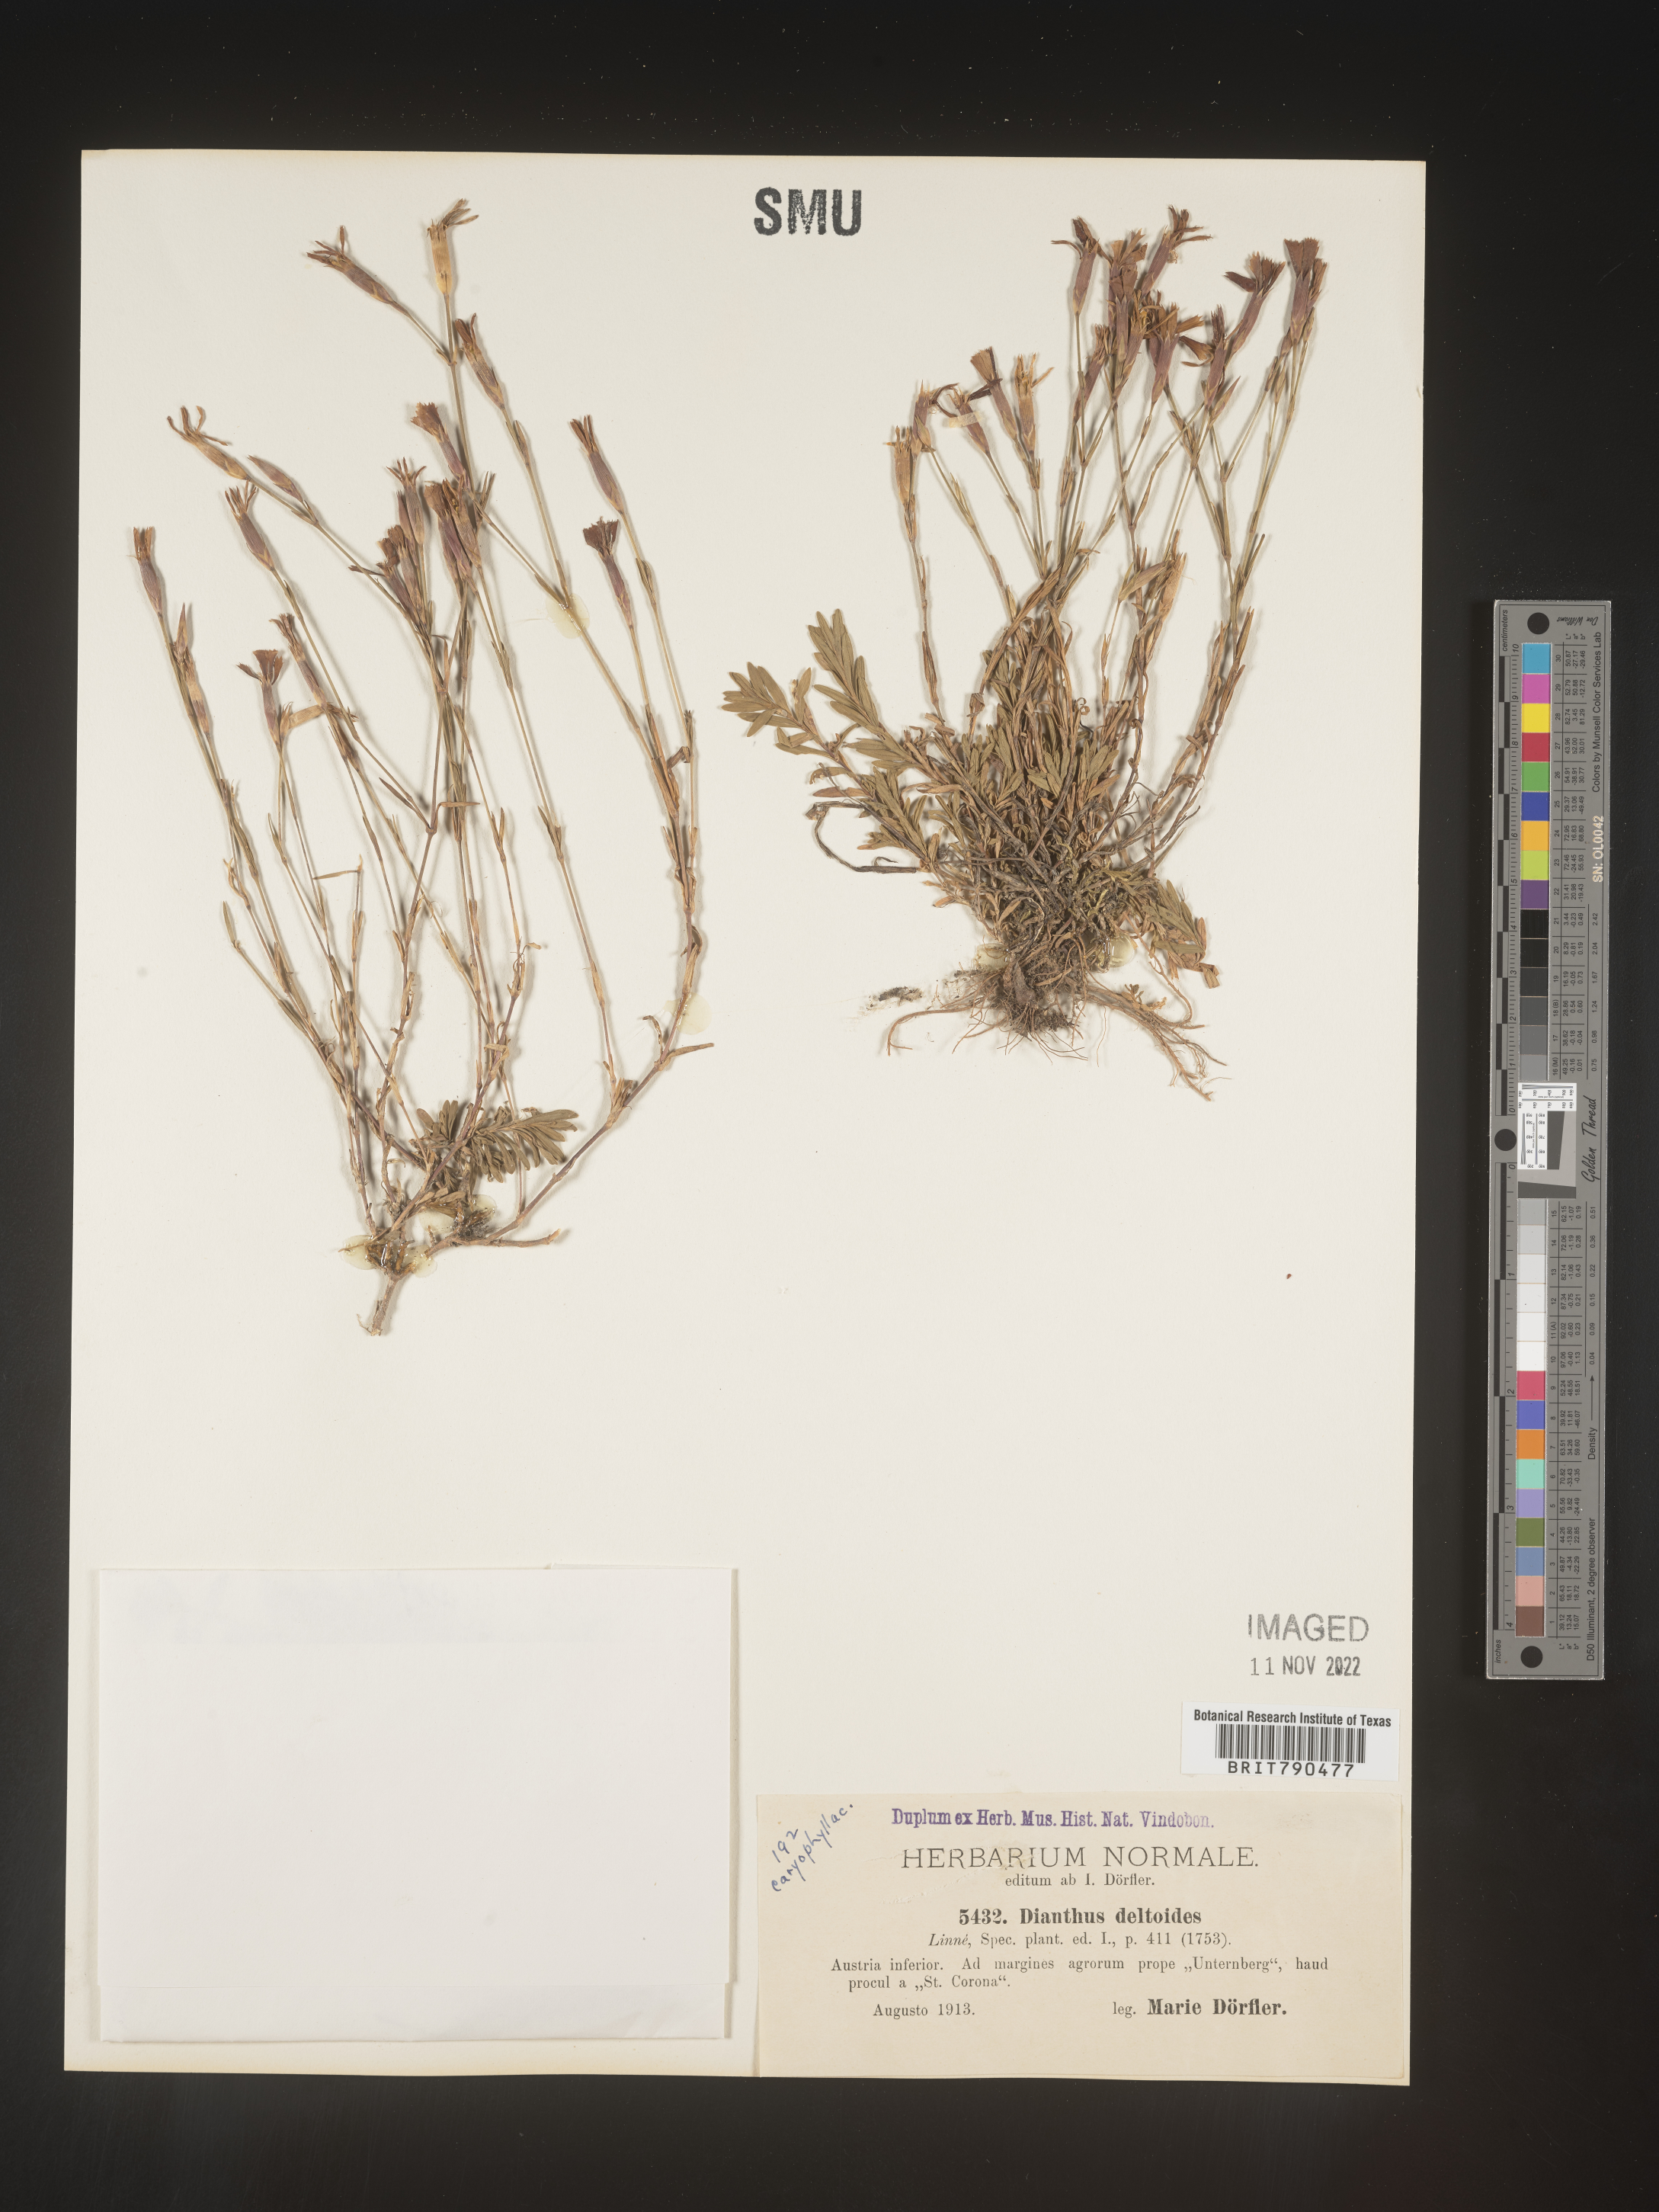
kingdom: Plantae
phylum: Tracheophyta
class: Magnoliopsida
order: Caryophyllales
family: Caryophyllaceae
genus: Dianthus
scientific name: Dianthus deltoides
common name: Maiden pink
